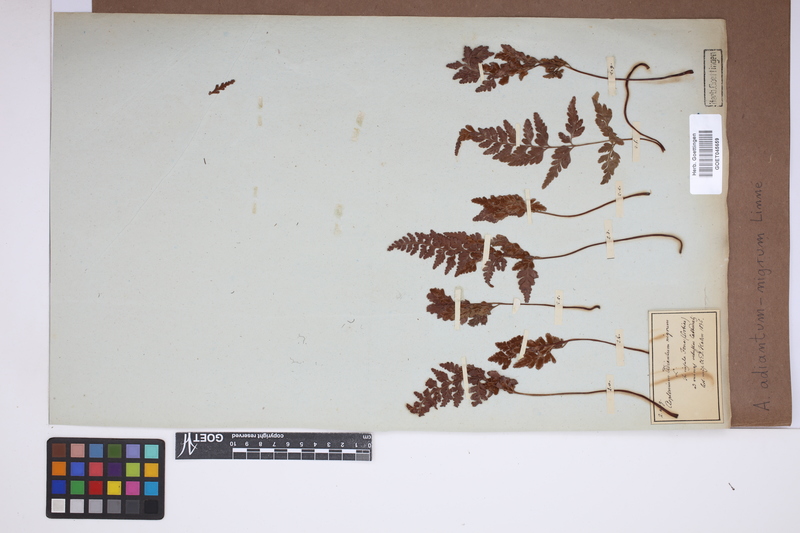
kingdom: Plantae
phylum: Tracheophyta
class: Polypodiopsida
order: Polypodiales
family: Aspleniaceae
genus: Asplenium
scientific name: Asplenium adiantum-nigrum
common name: Black spleenwort
